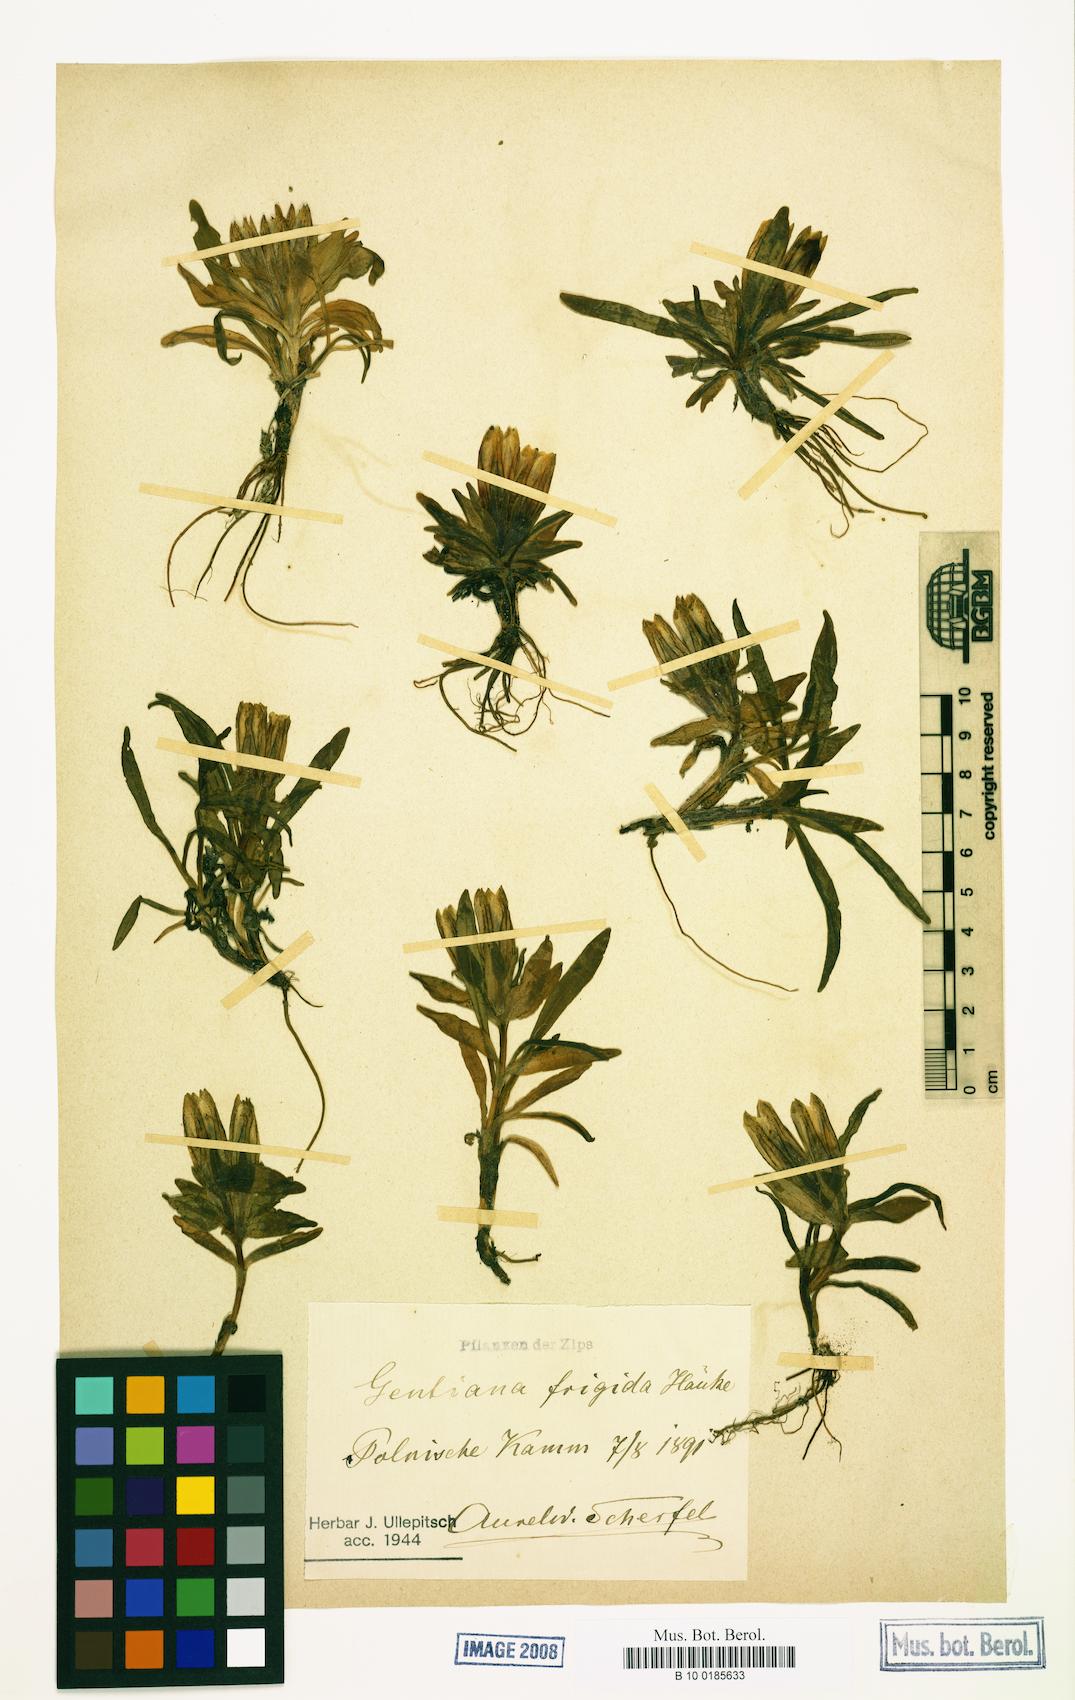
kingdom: Plantae
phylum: Tracheophyta
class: Magnoliopsida
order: Gentianales
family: Gentianaceae
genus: Gentiana
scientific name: Gentiana frigida
